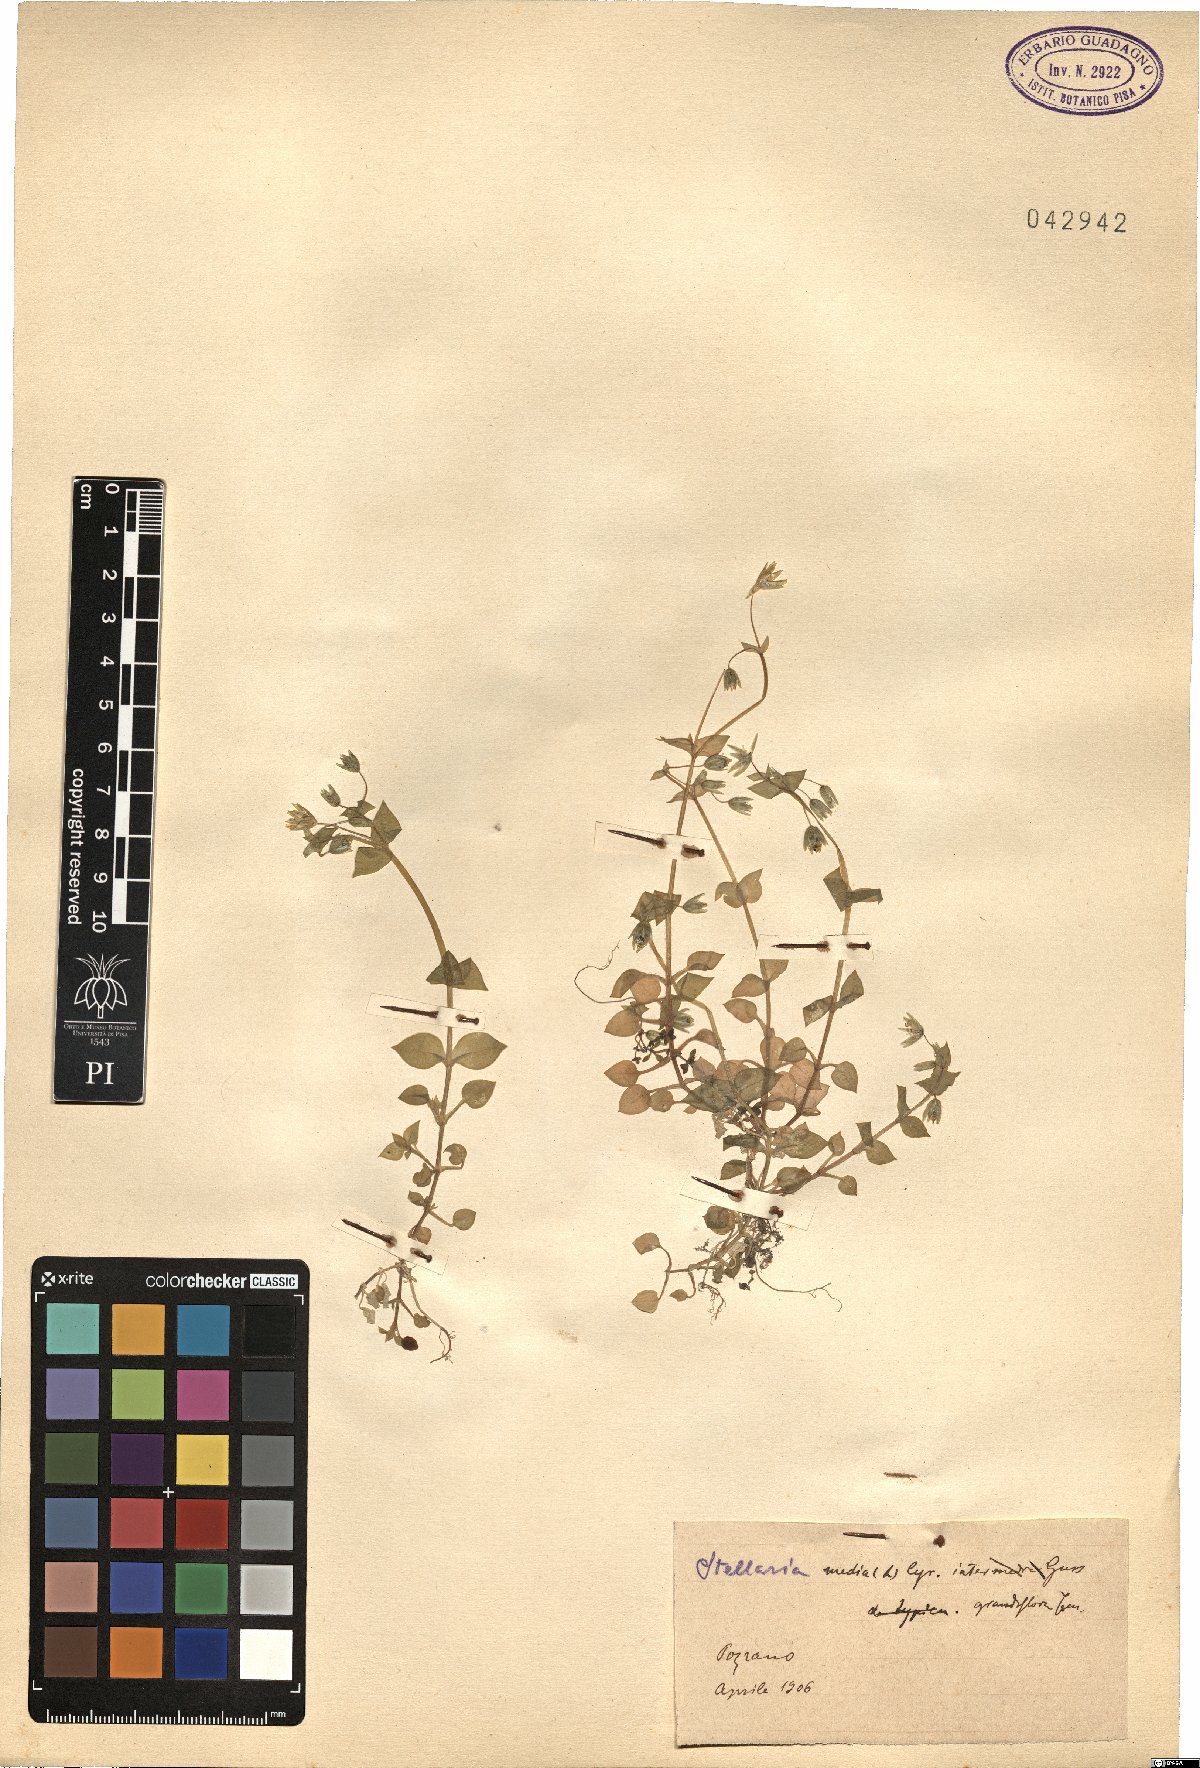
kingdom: Plantae
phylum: Tracheophyta
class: Magnoliopsida
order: Caryophyllales
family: Caryophyllaceae
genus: Stellaria
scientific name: Stellaria media
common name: Common chickweed
